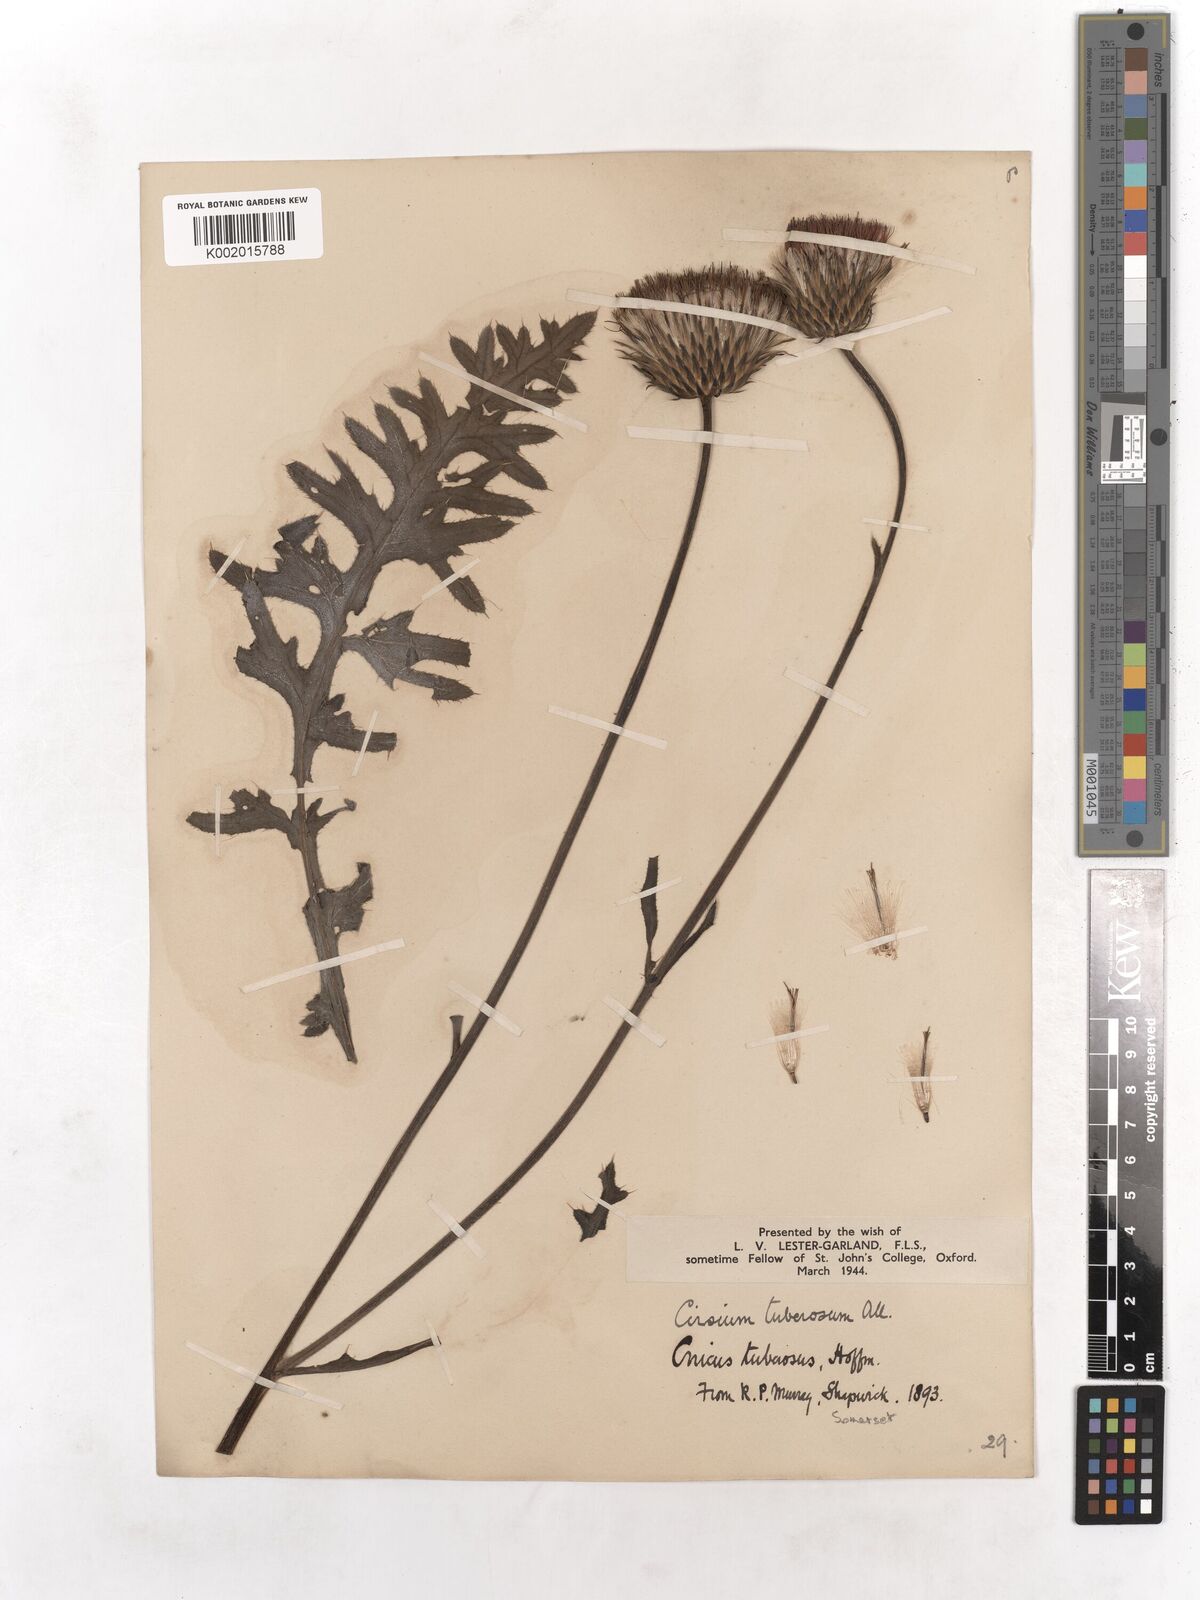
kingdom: Plantae
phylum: Tracheophyta
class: Magnoliopsida
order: Asterales
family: Asteraceae
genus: Cirsium
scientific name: Cirsium tuberosum
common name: Tuberous thistle
